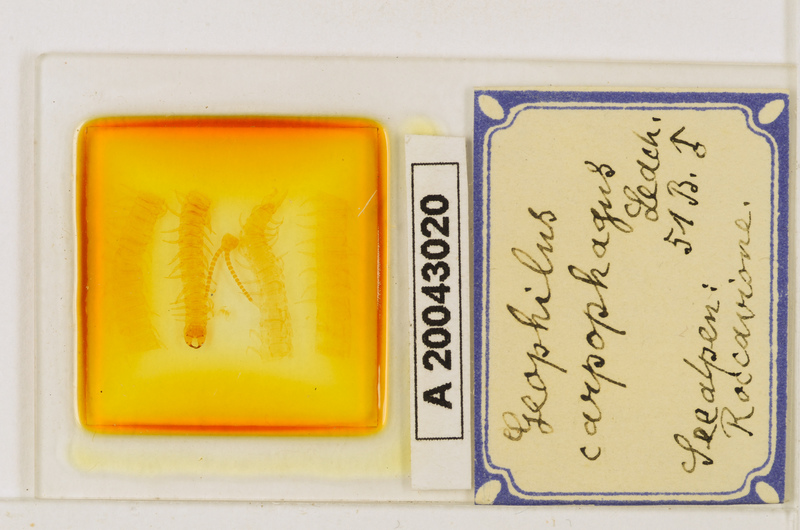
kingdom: Animalia
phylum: Arthropoda
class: Chilopoda
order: Geophilomorpha
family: Geophilidae
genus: Geophilus
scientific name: Geophilus carpophagus
